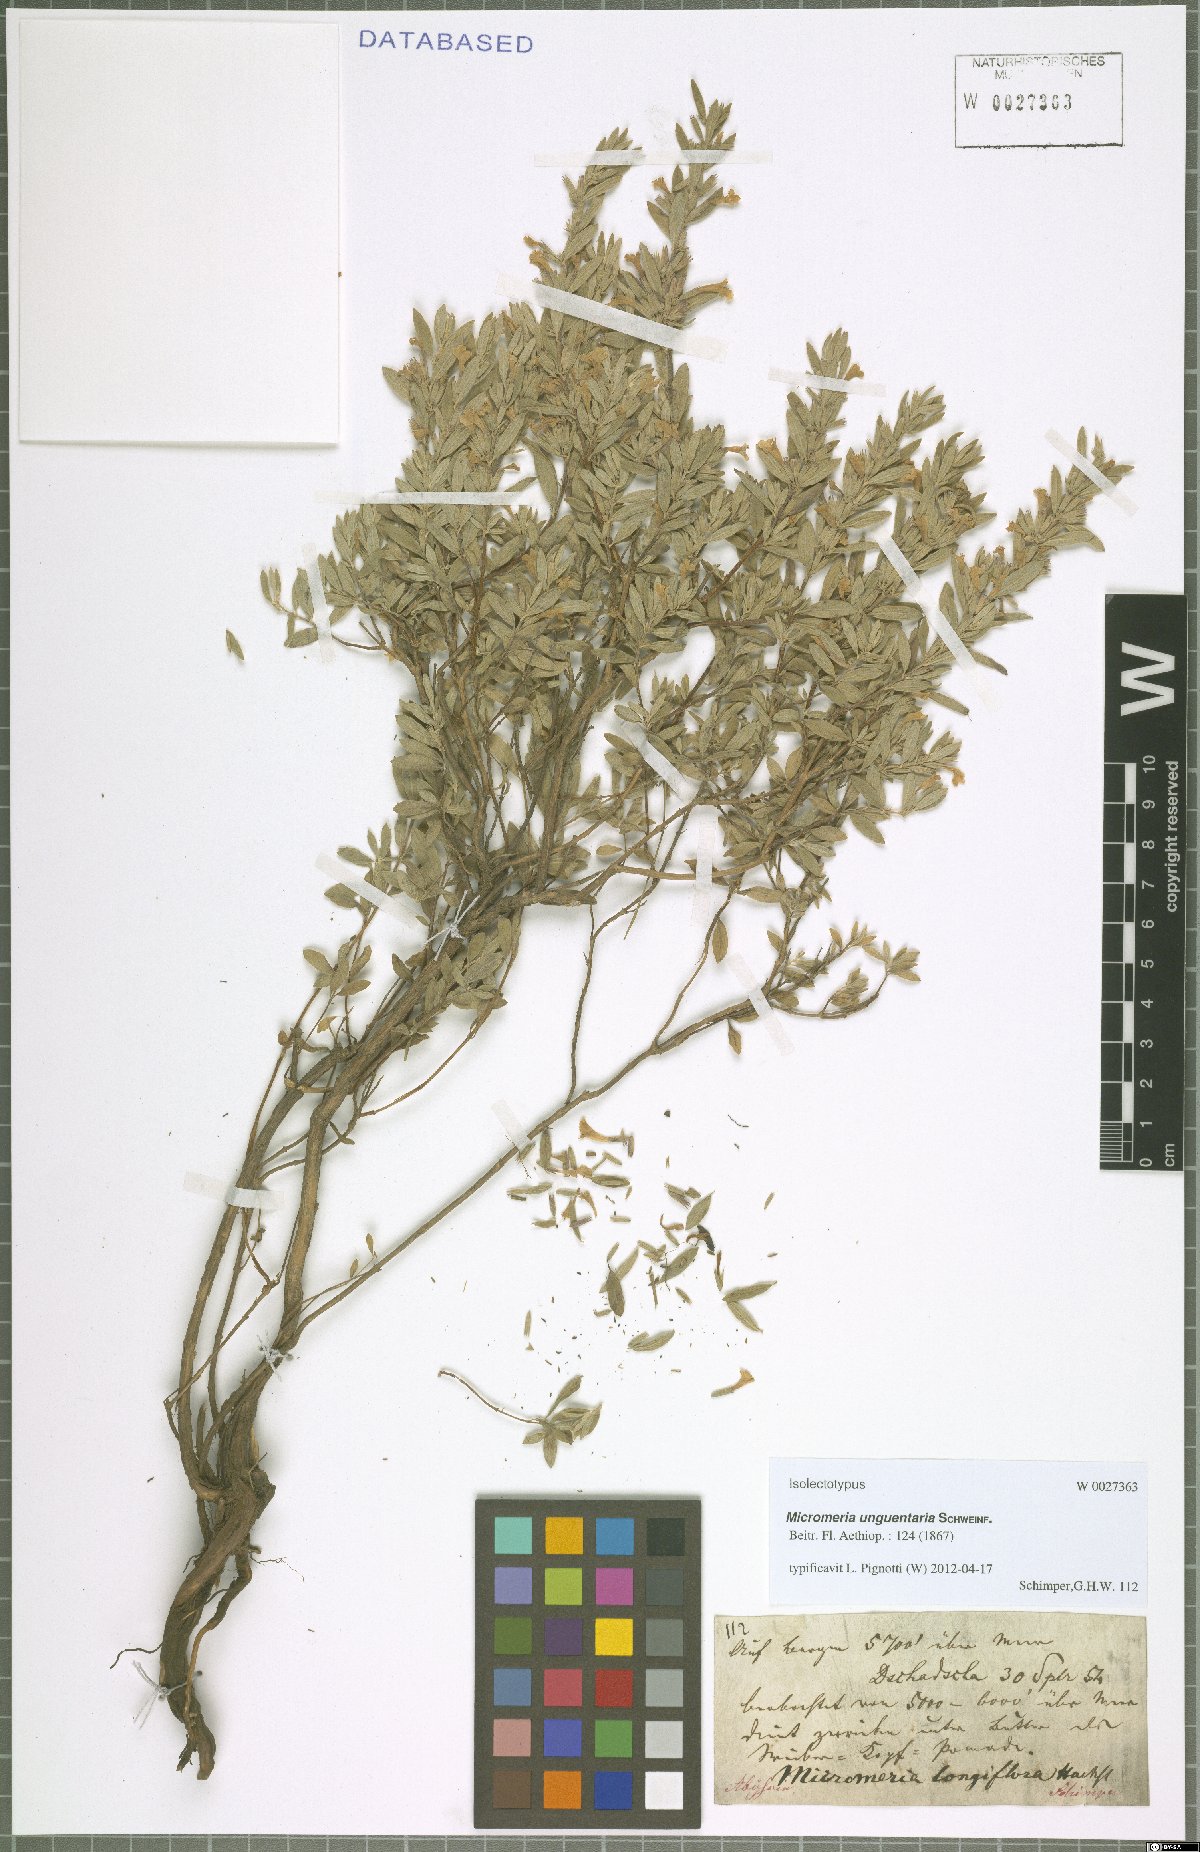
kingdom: Plantae
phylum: Tracheophyta
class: Magnoliopsida
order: Lamiales
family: Lamiaceae
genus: Micromeria
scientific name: Micromeria unguentaria
